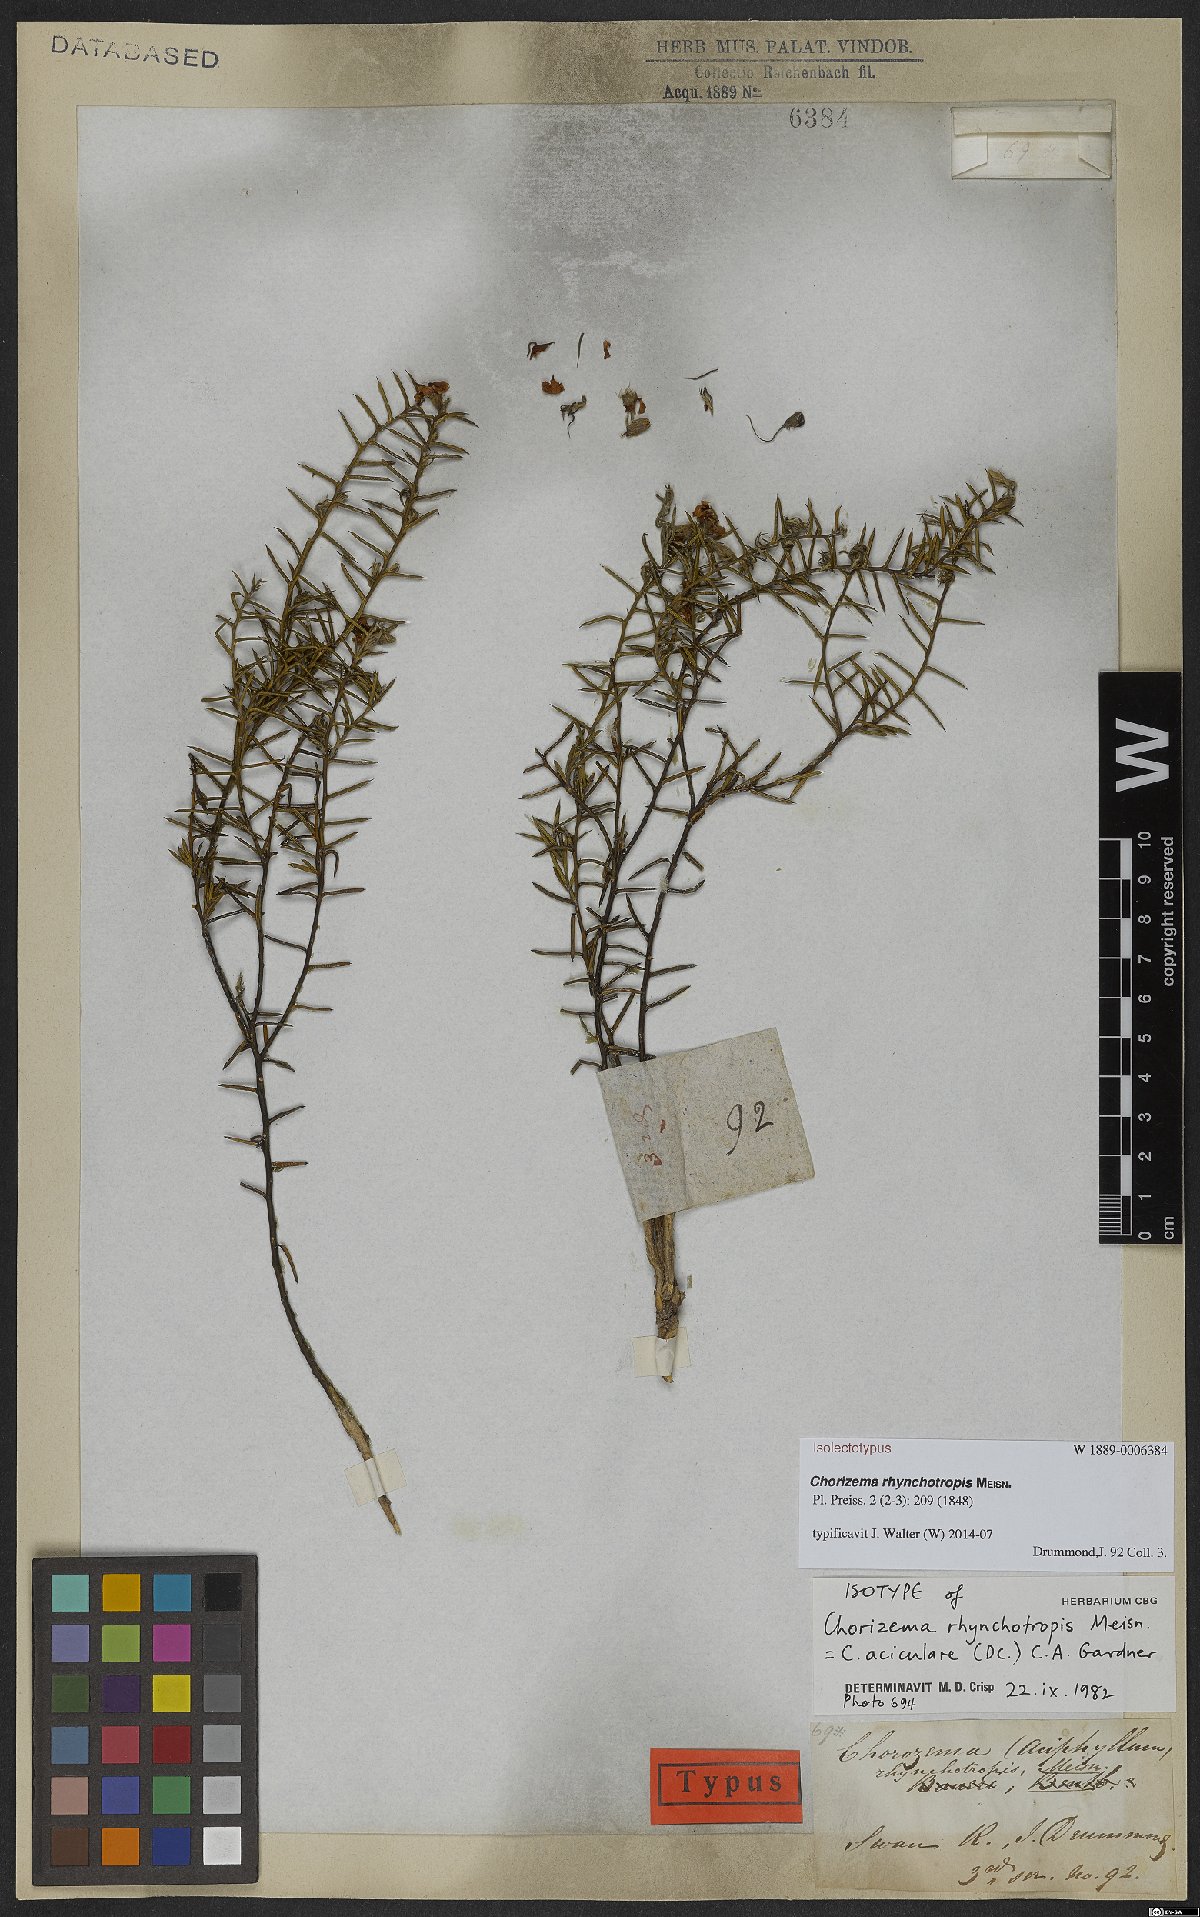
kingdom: Plantae
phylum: Tracheophyta
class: Magnoliopsida
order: Fabales
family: Fabaceae
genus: Chorizema
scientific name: Chorizema rhynchotropis
